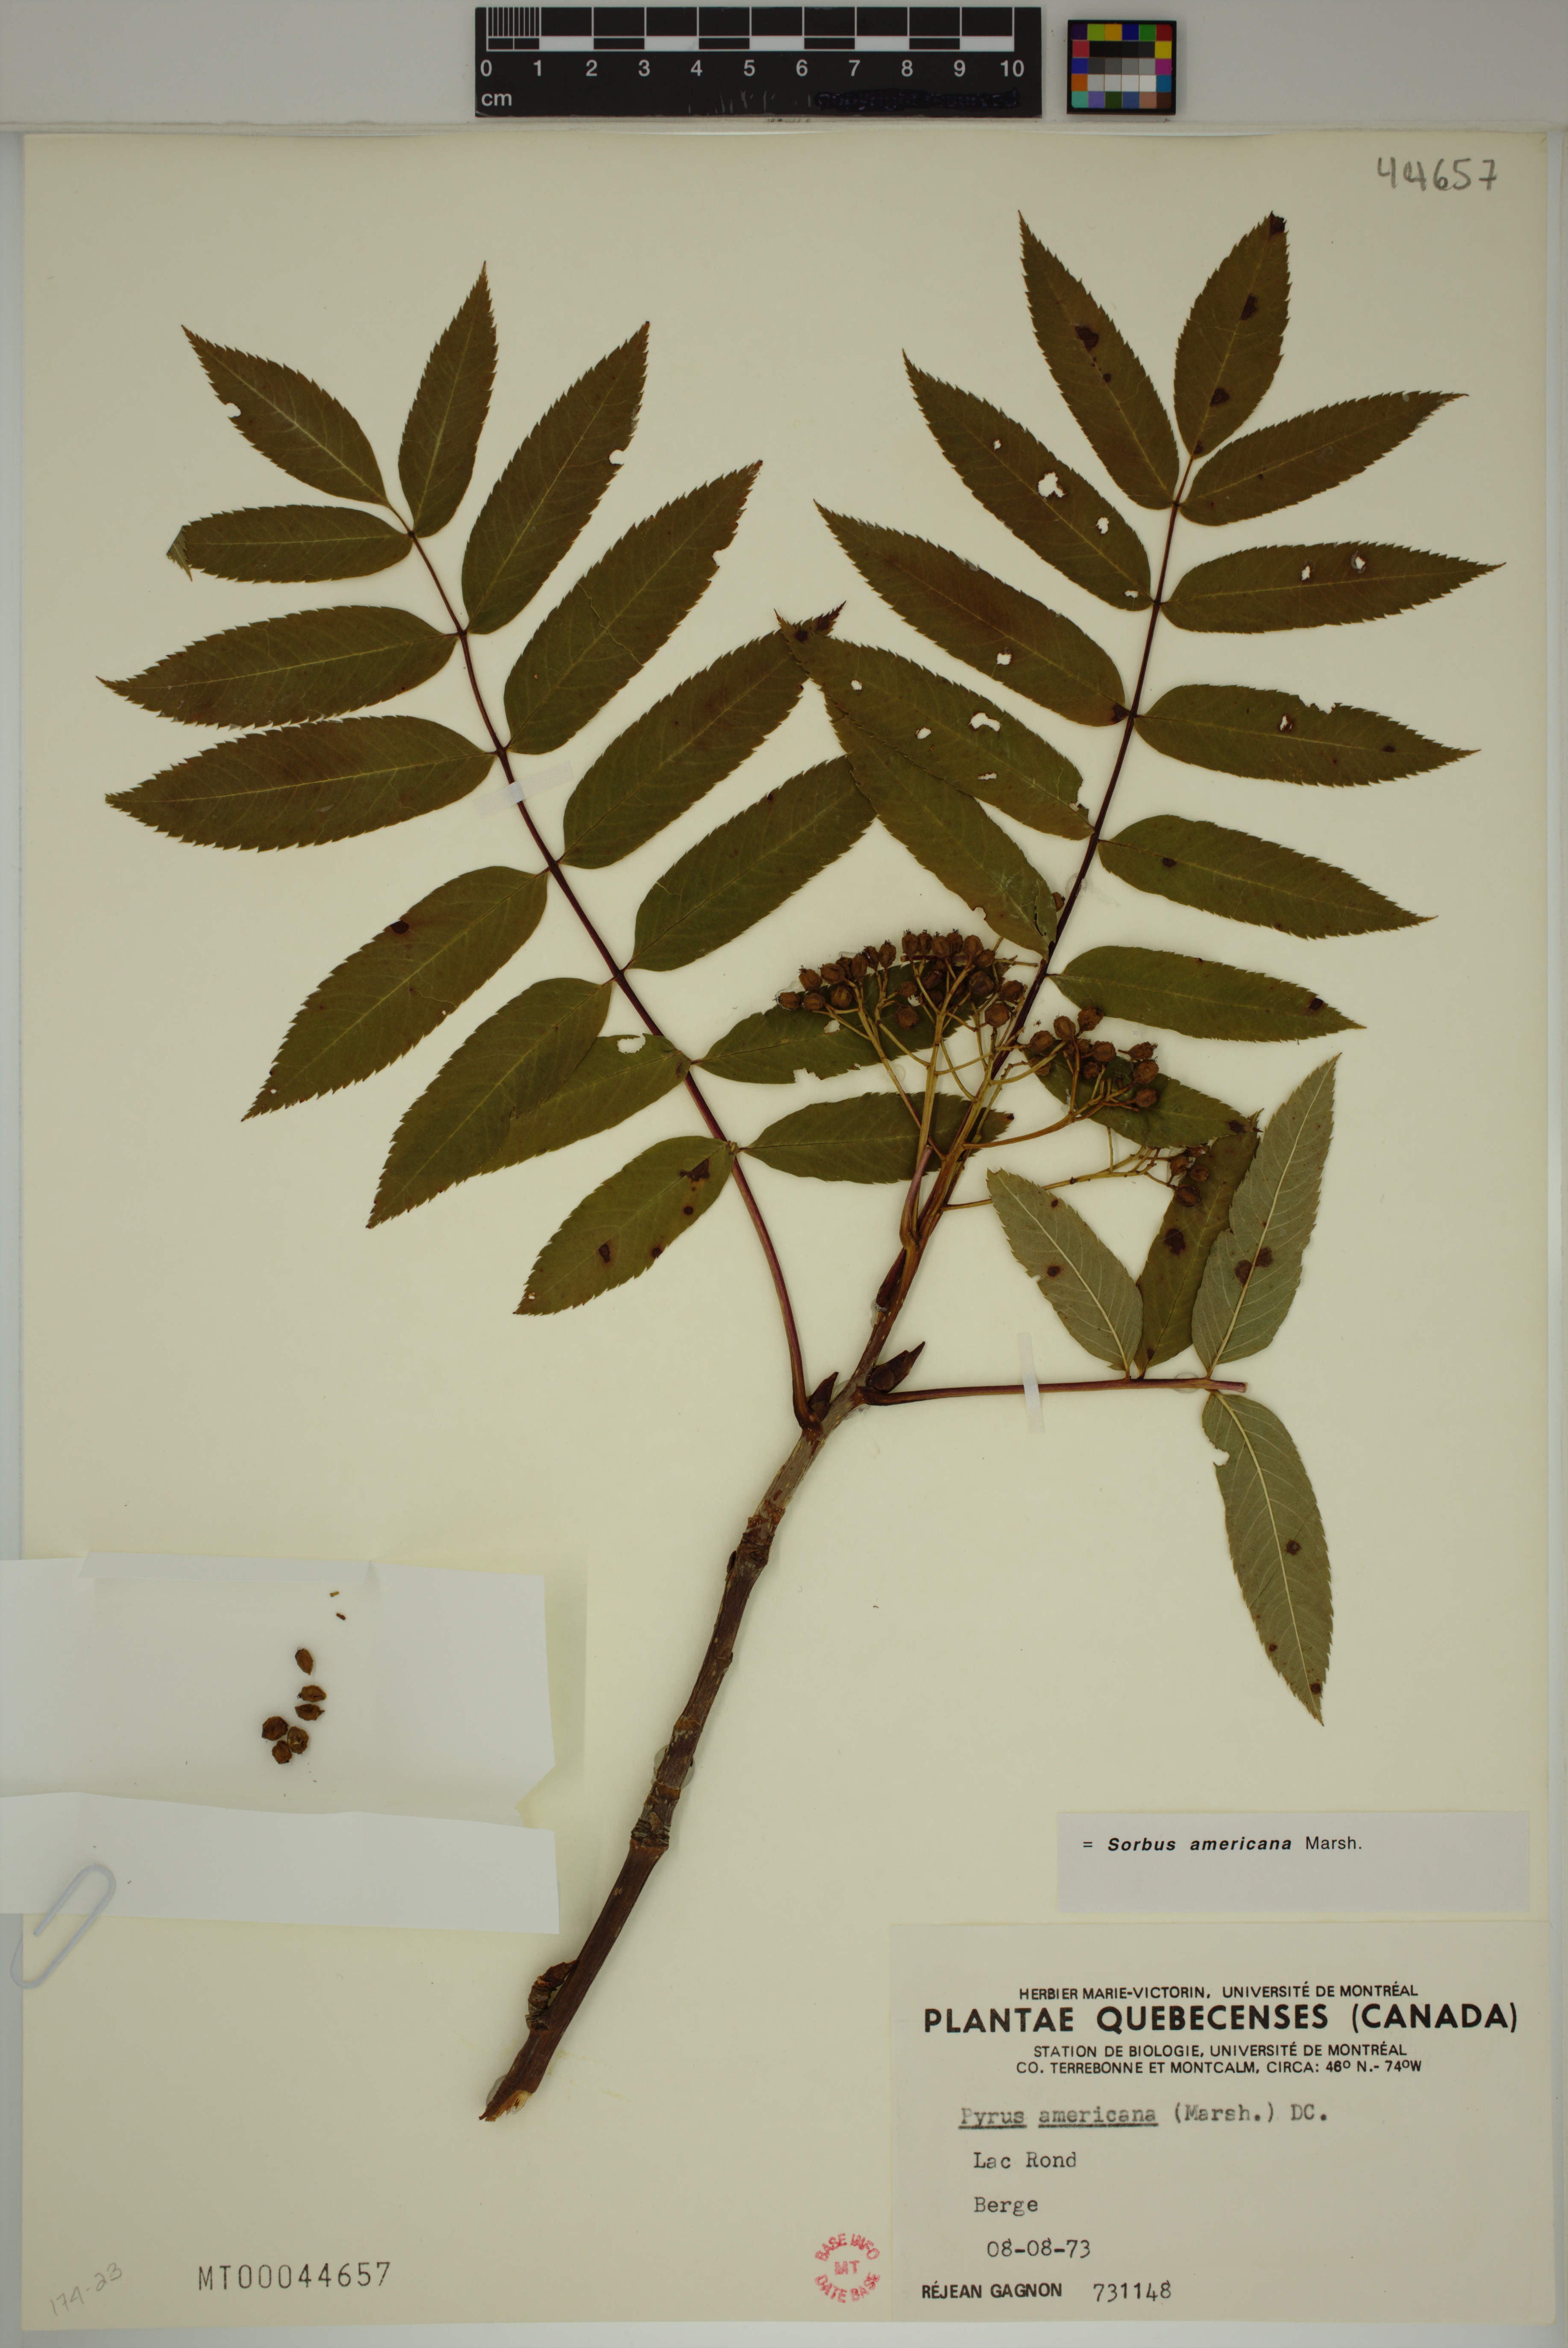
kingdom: Plantae
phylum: Tracheophyta
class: Magnoliopsida
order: Rosales
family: Rosaceae
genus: Sorbus
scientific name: Sorbus americana
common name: American mountain-ash
